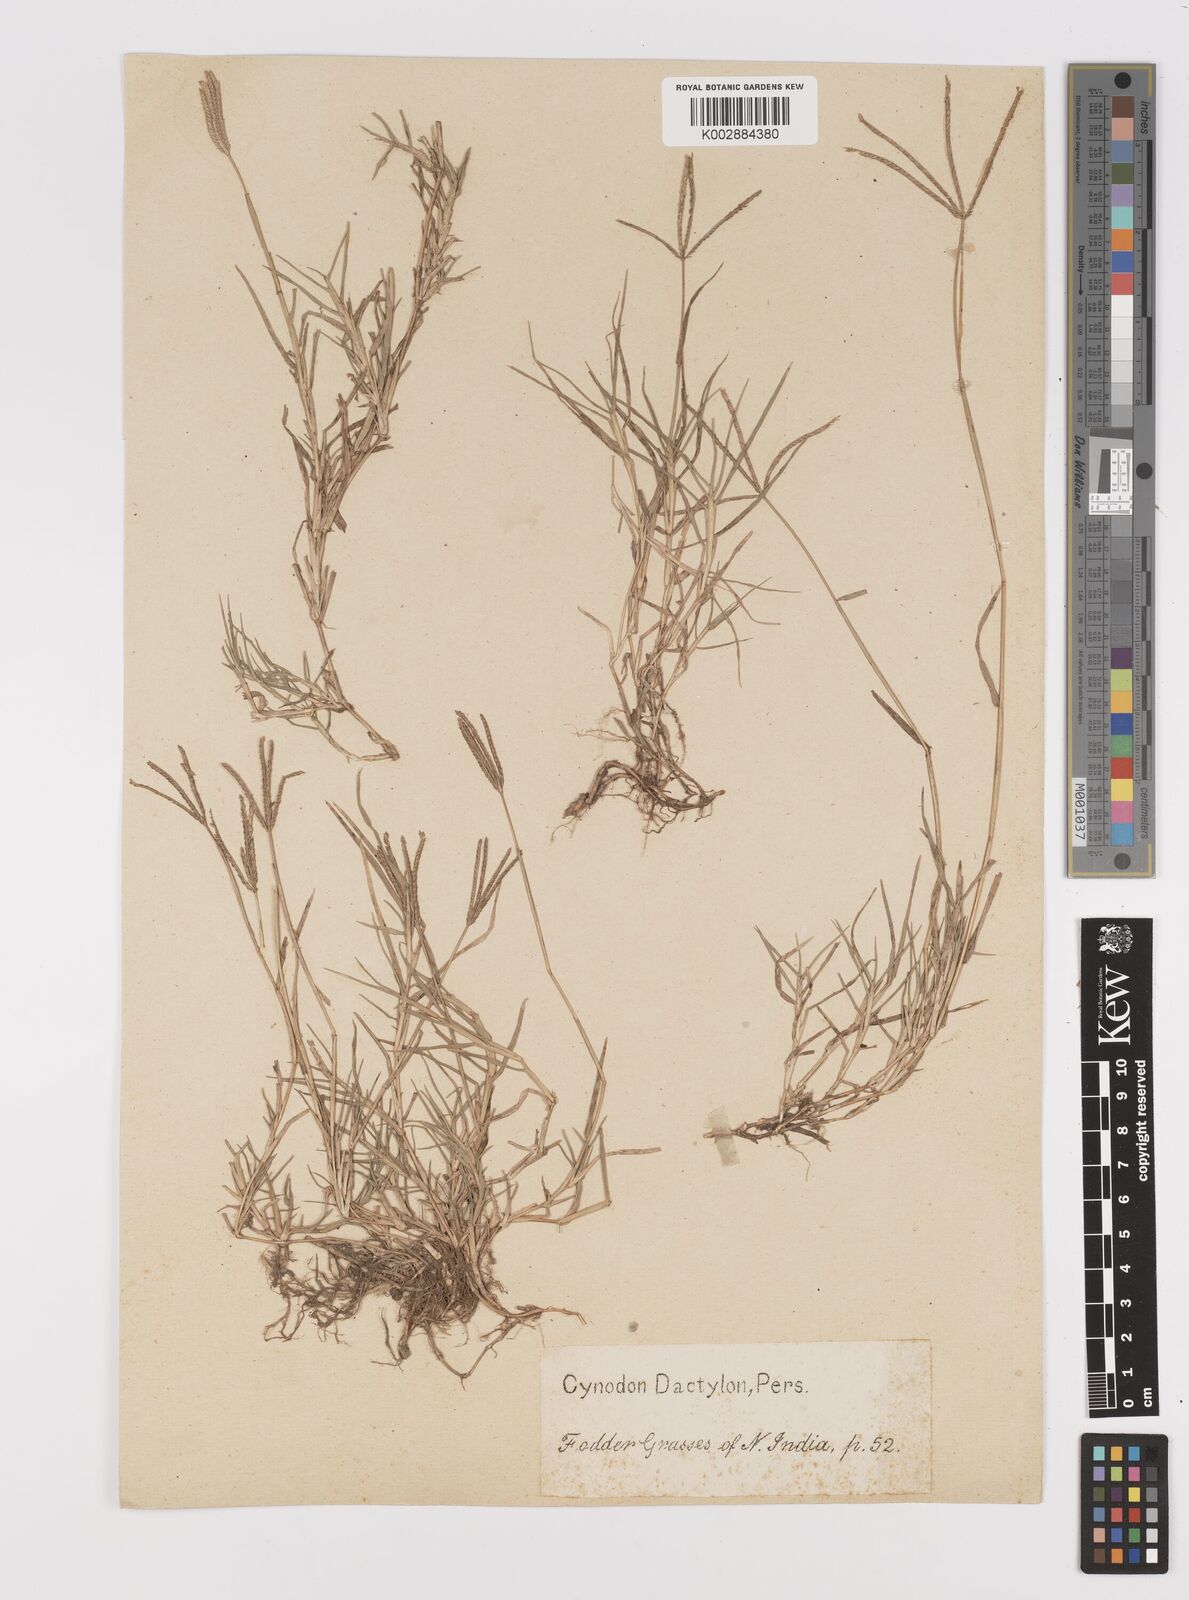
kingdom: Plantae
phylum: Tracheophyta
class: Liliopsida
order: Poales
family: Poaceae
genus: Cynodon
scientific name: Cynodon dactylon
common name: Bermuda grass
